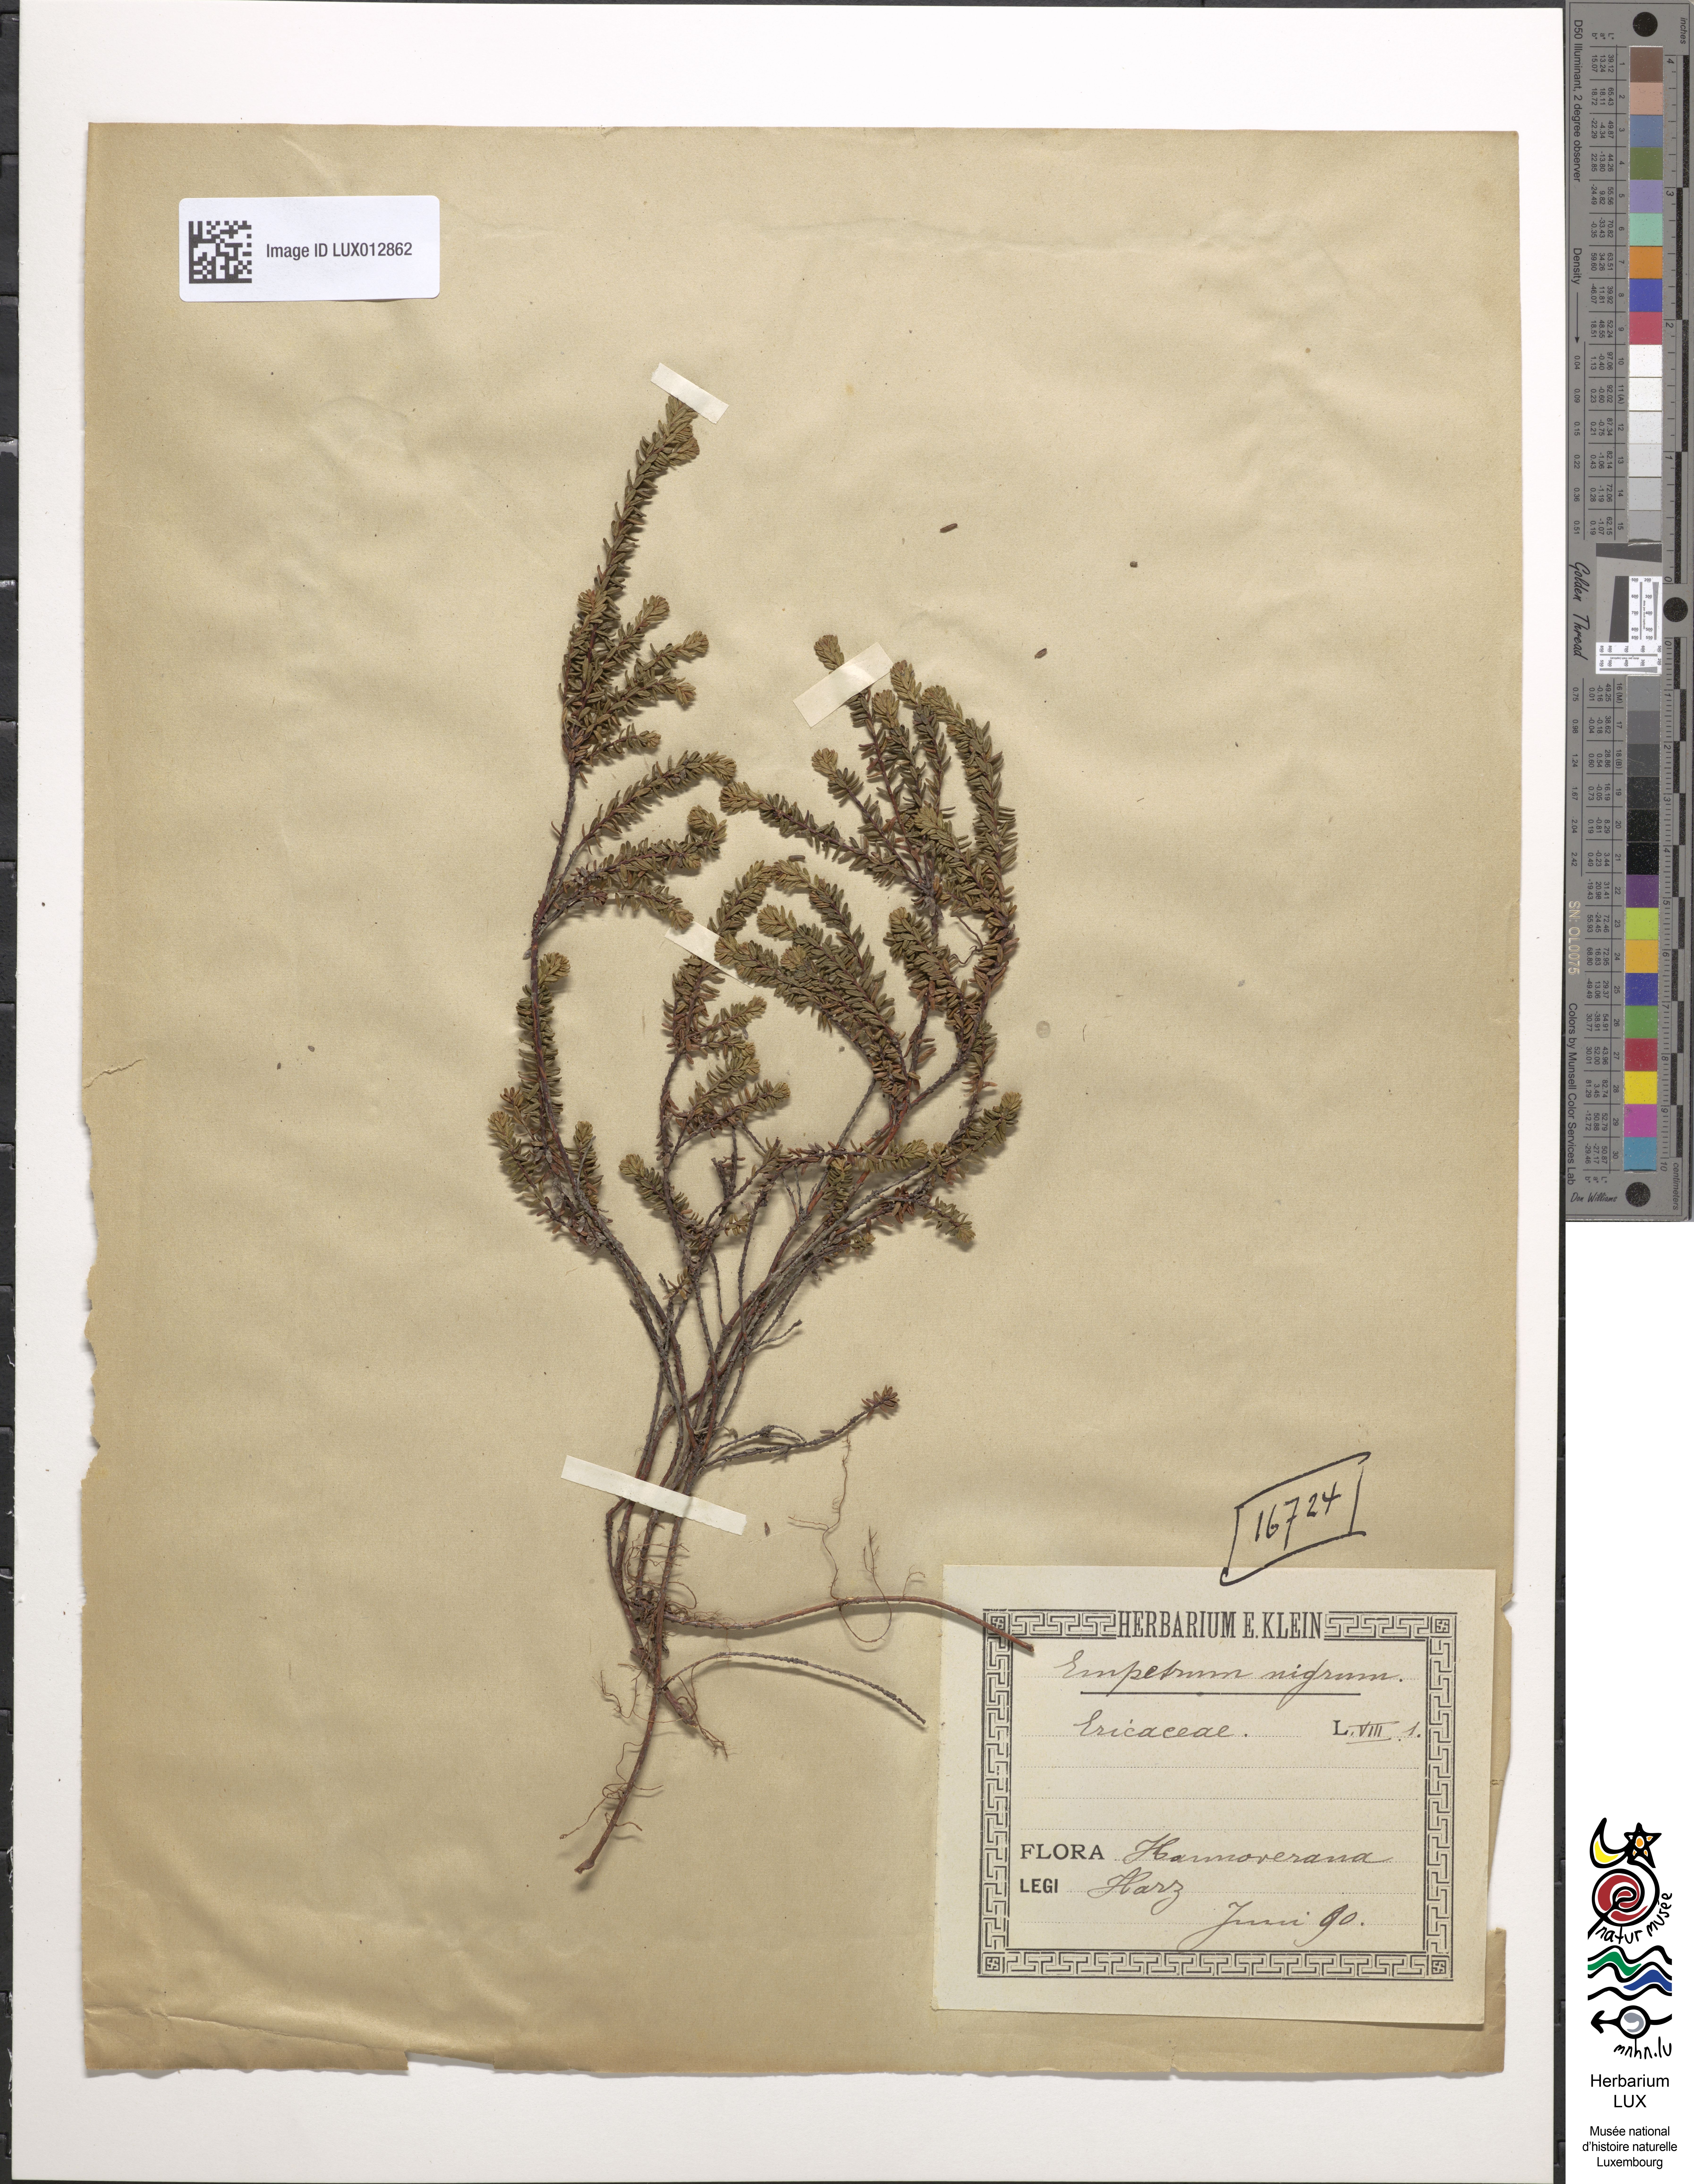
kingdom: Plantae
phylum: Tracheophyta
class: Magnoliopsida
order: Ericales
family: Ericaceae
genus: Empetrum
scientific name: Empetrum nigrum
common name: Black crowberry
